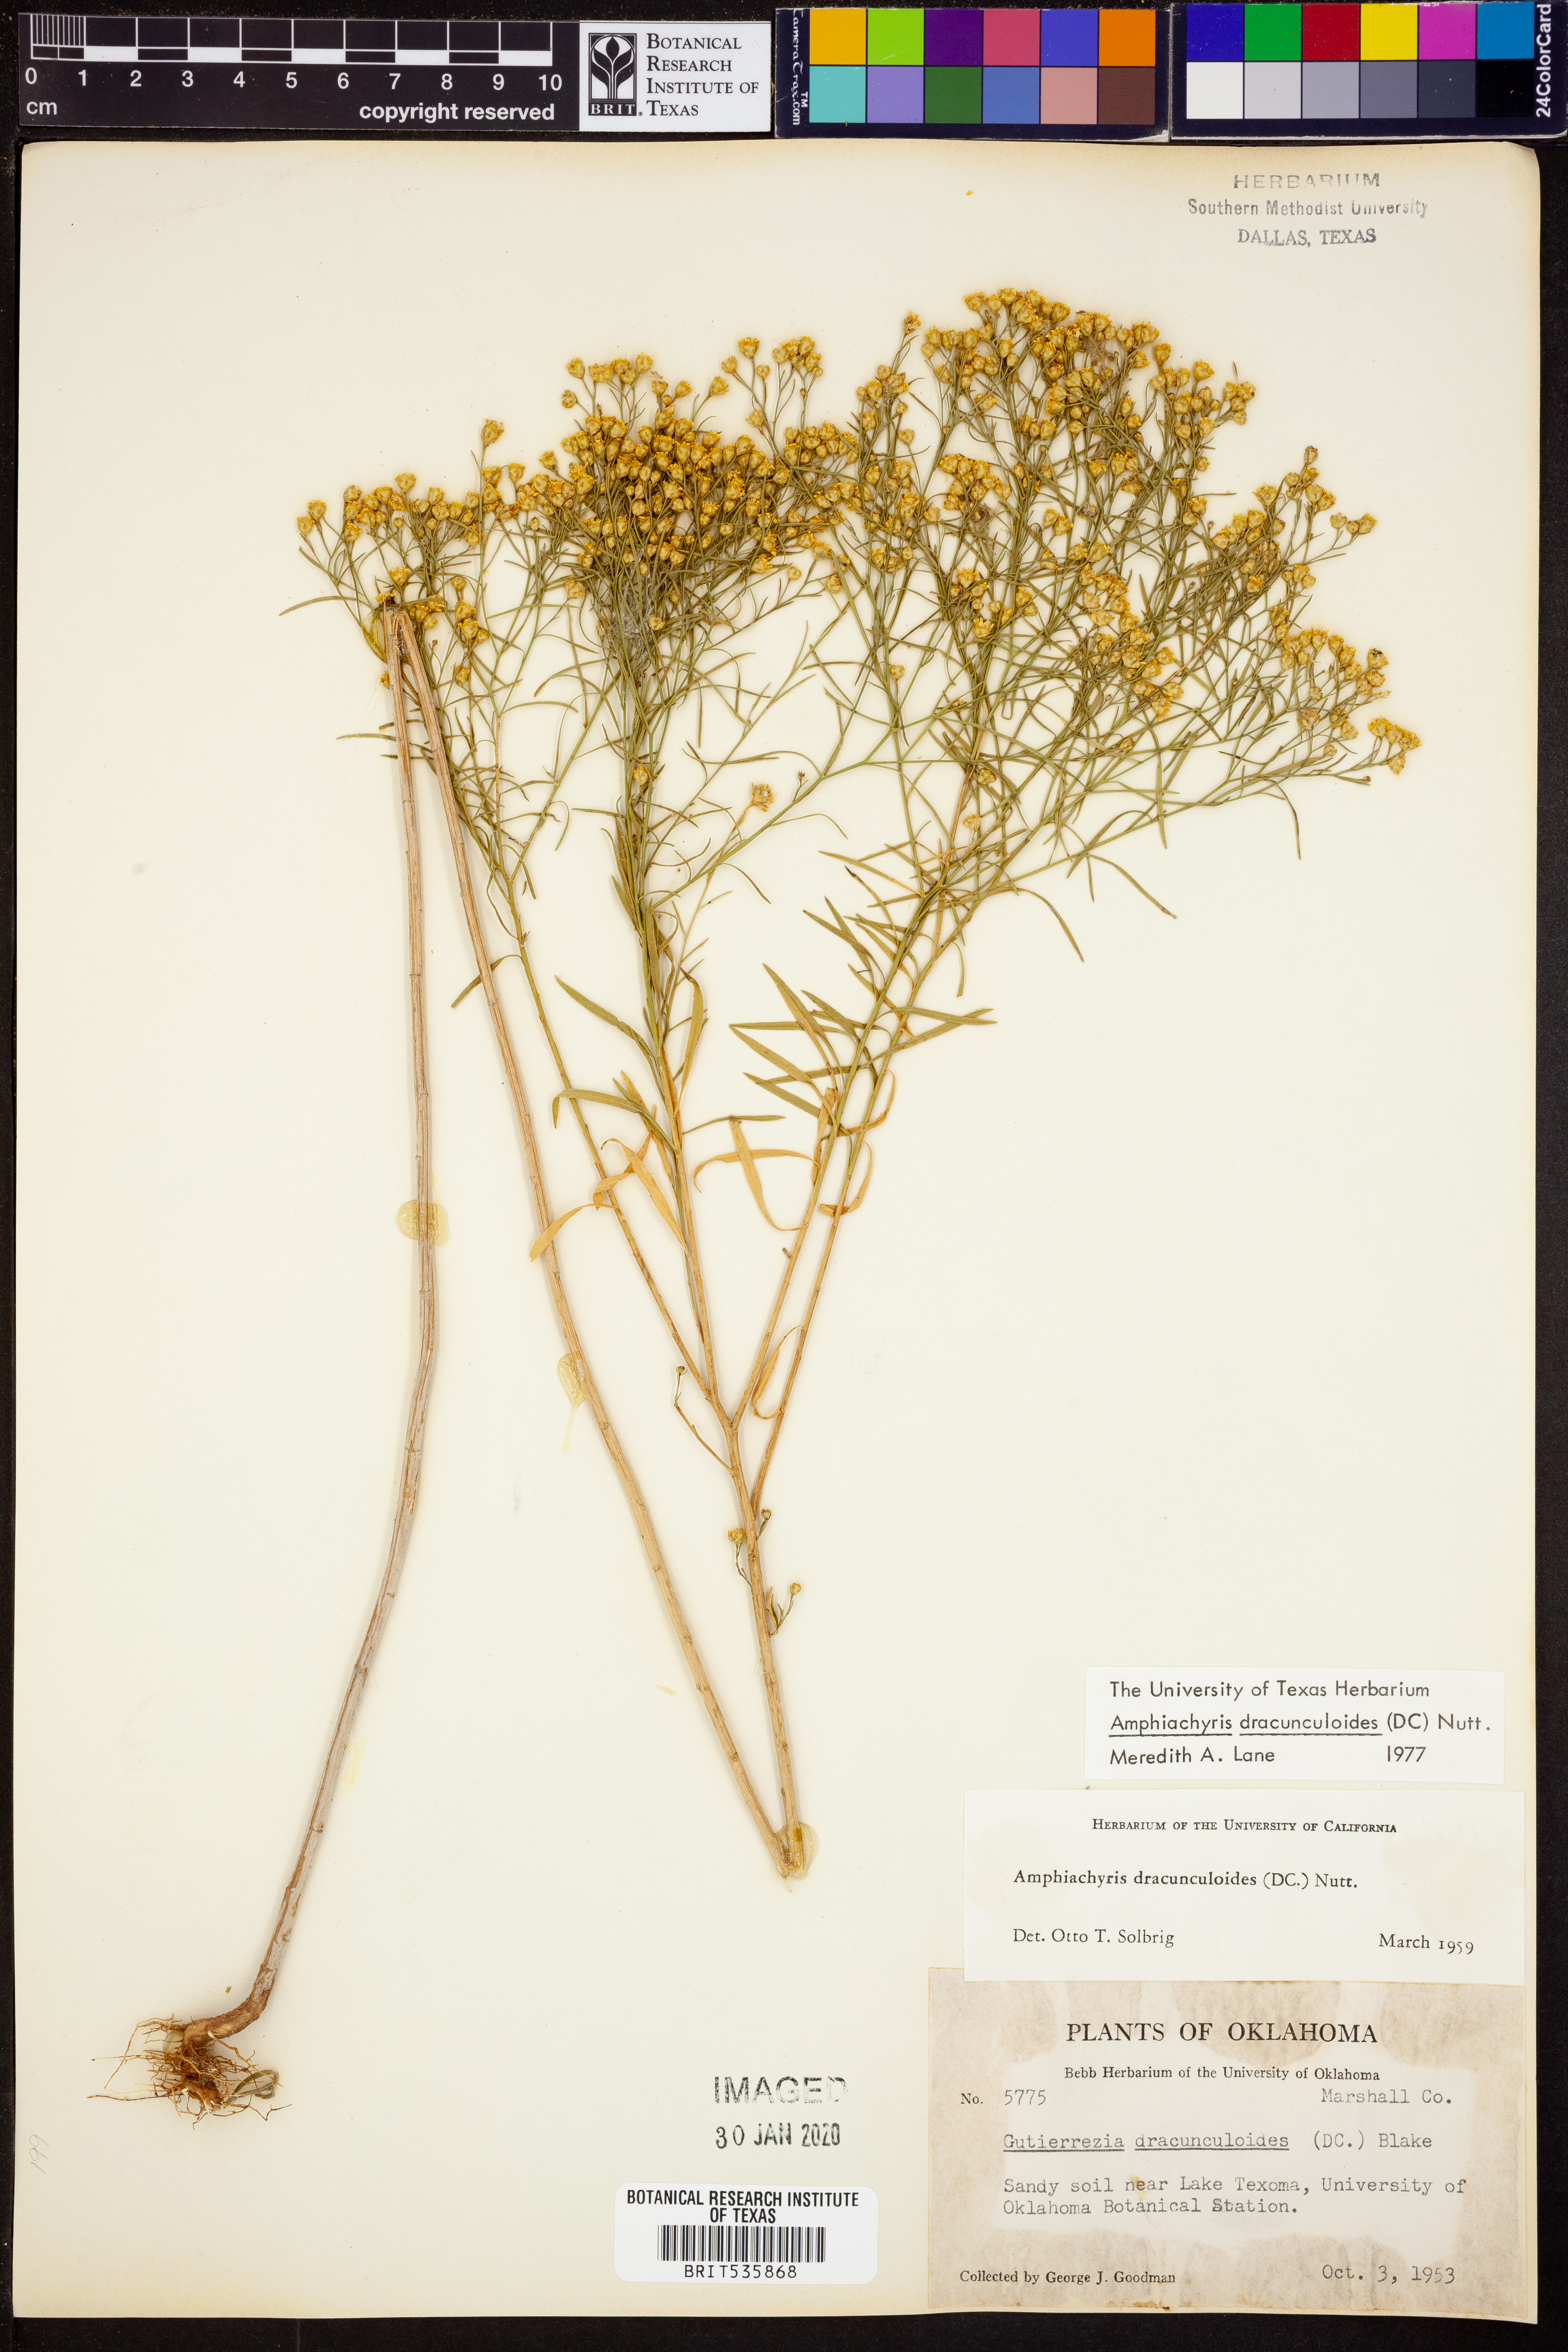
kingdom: Plantae
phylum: Tracheophyta
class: Magnoliopsida
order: Asterales
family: Asteraceae
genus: Amphiachyris
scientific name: Amphiachyris dracunculoides
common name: Broomweed
